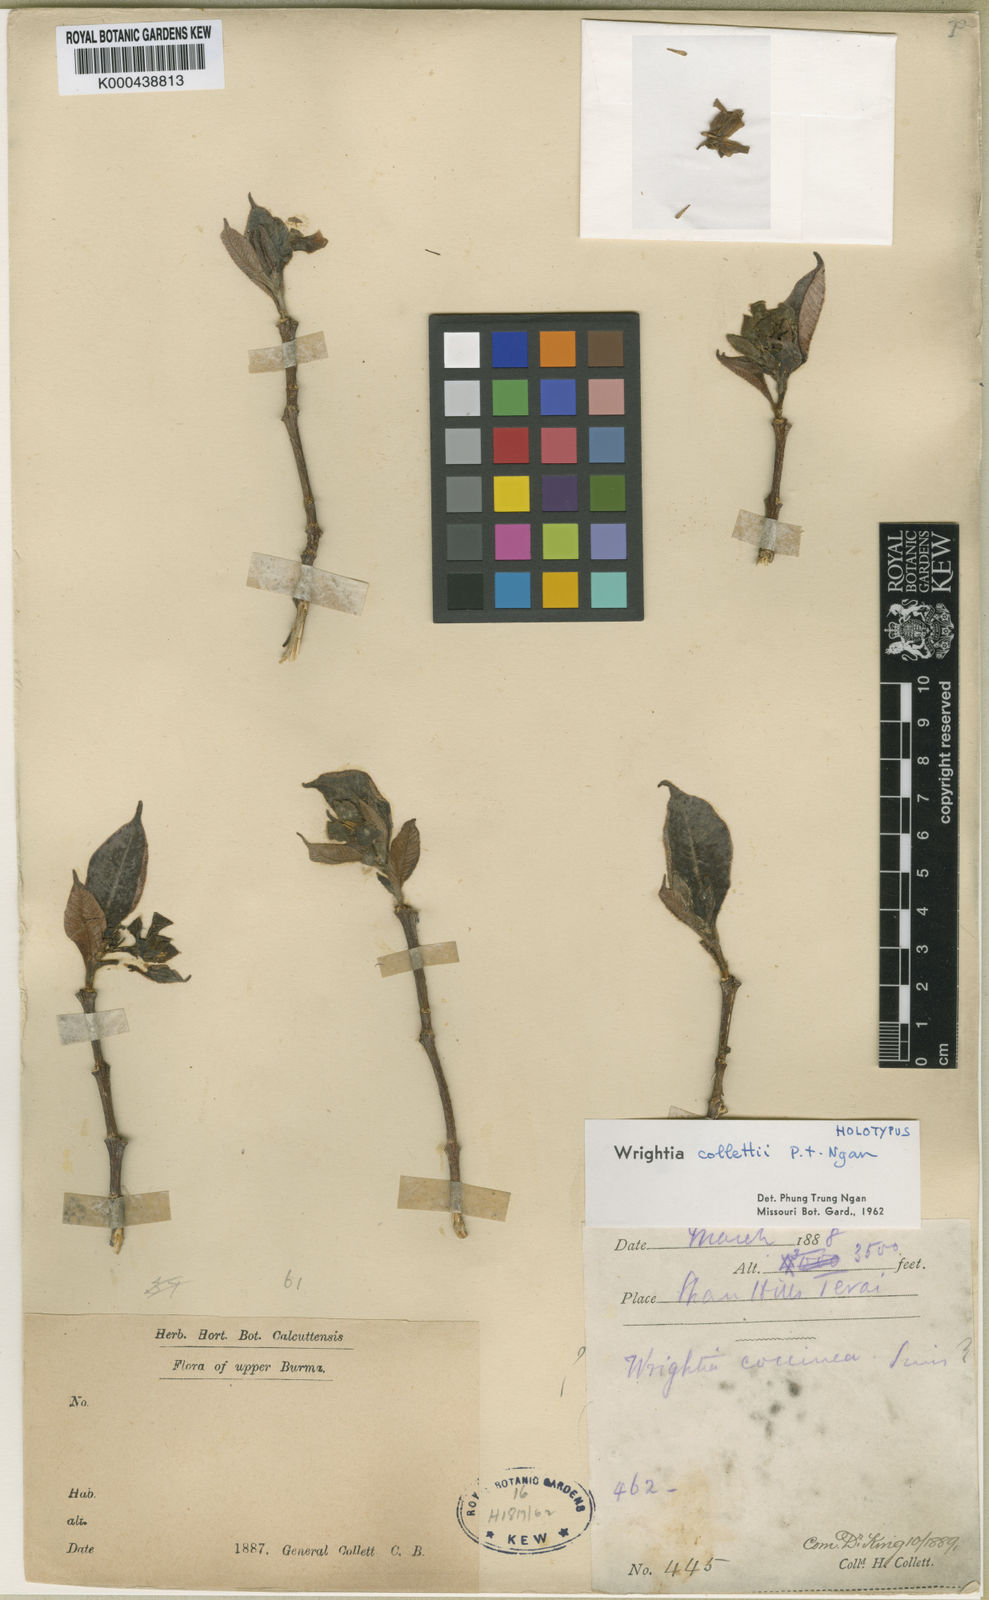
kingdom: Plantae
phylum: Tracheophyta
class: Magnoliopsida
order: Gentianales
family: Apocynaceae
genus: Wrightia
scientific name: Wrightia collettii
